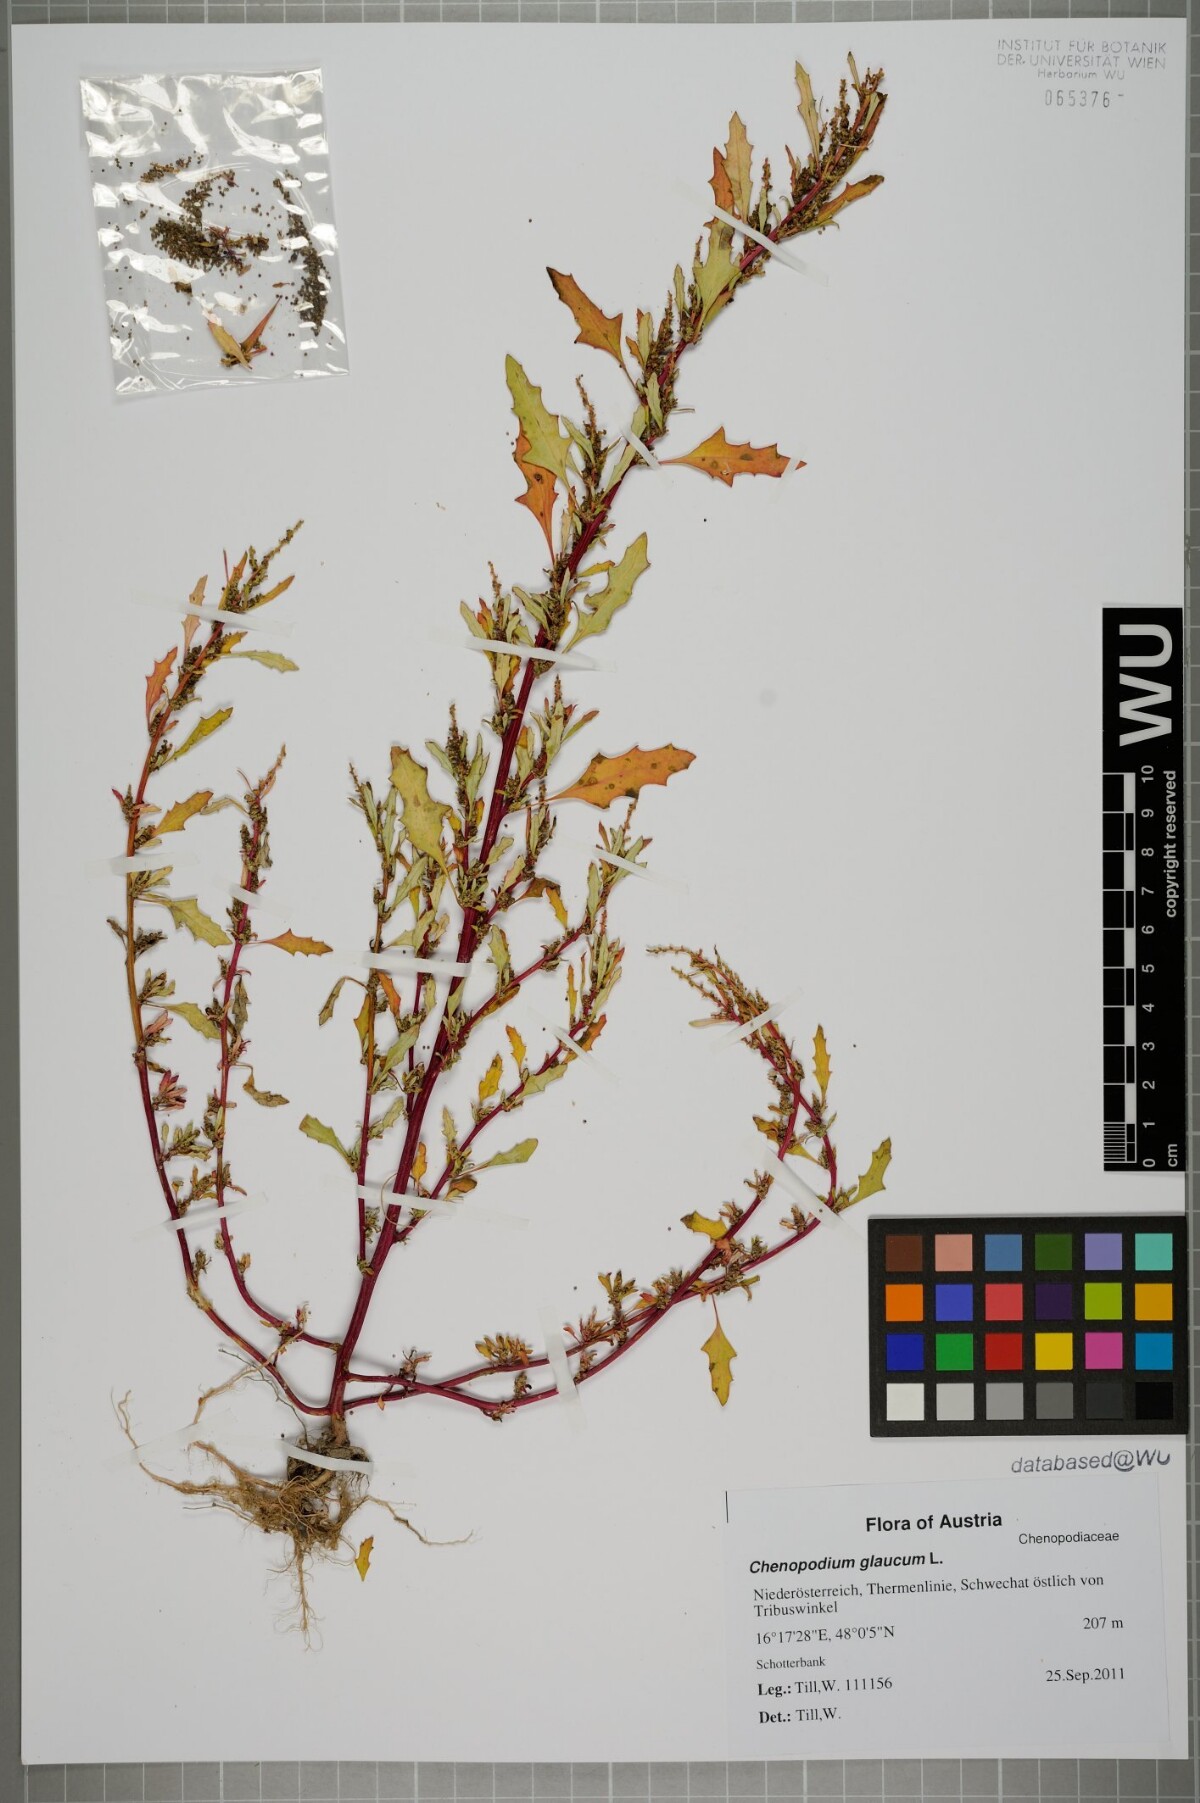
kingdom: Plantae
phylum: Tracheophyta
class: Magnoliopsida
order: Caryophyllales
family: Amaranthaceae
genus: Oxybasis
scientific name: Oxybasis glauca
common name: Glaucous goosefoot
